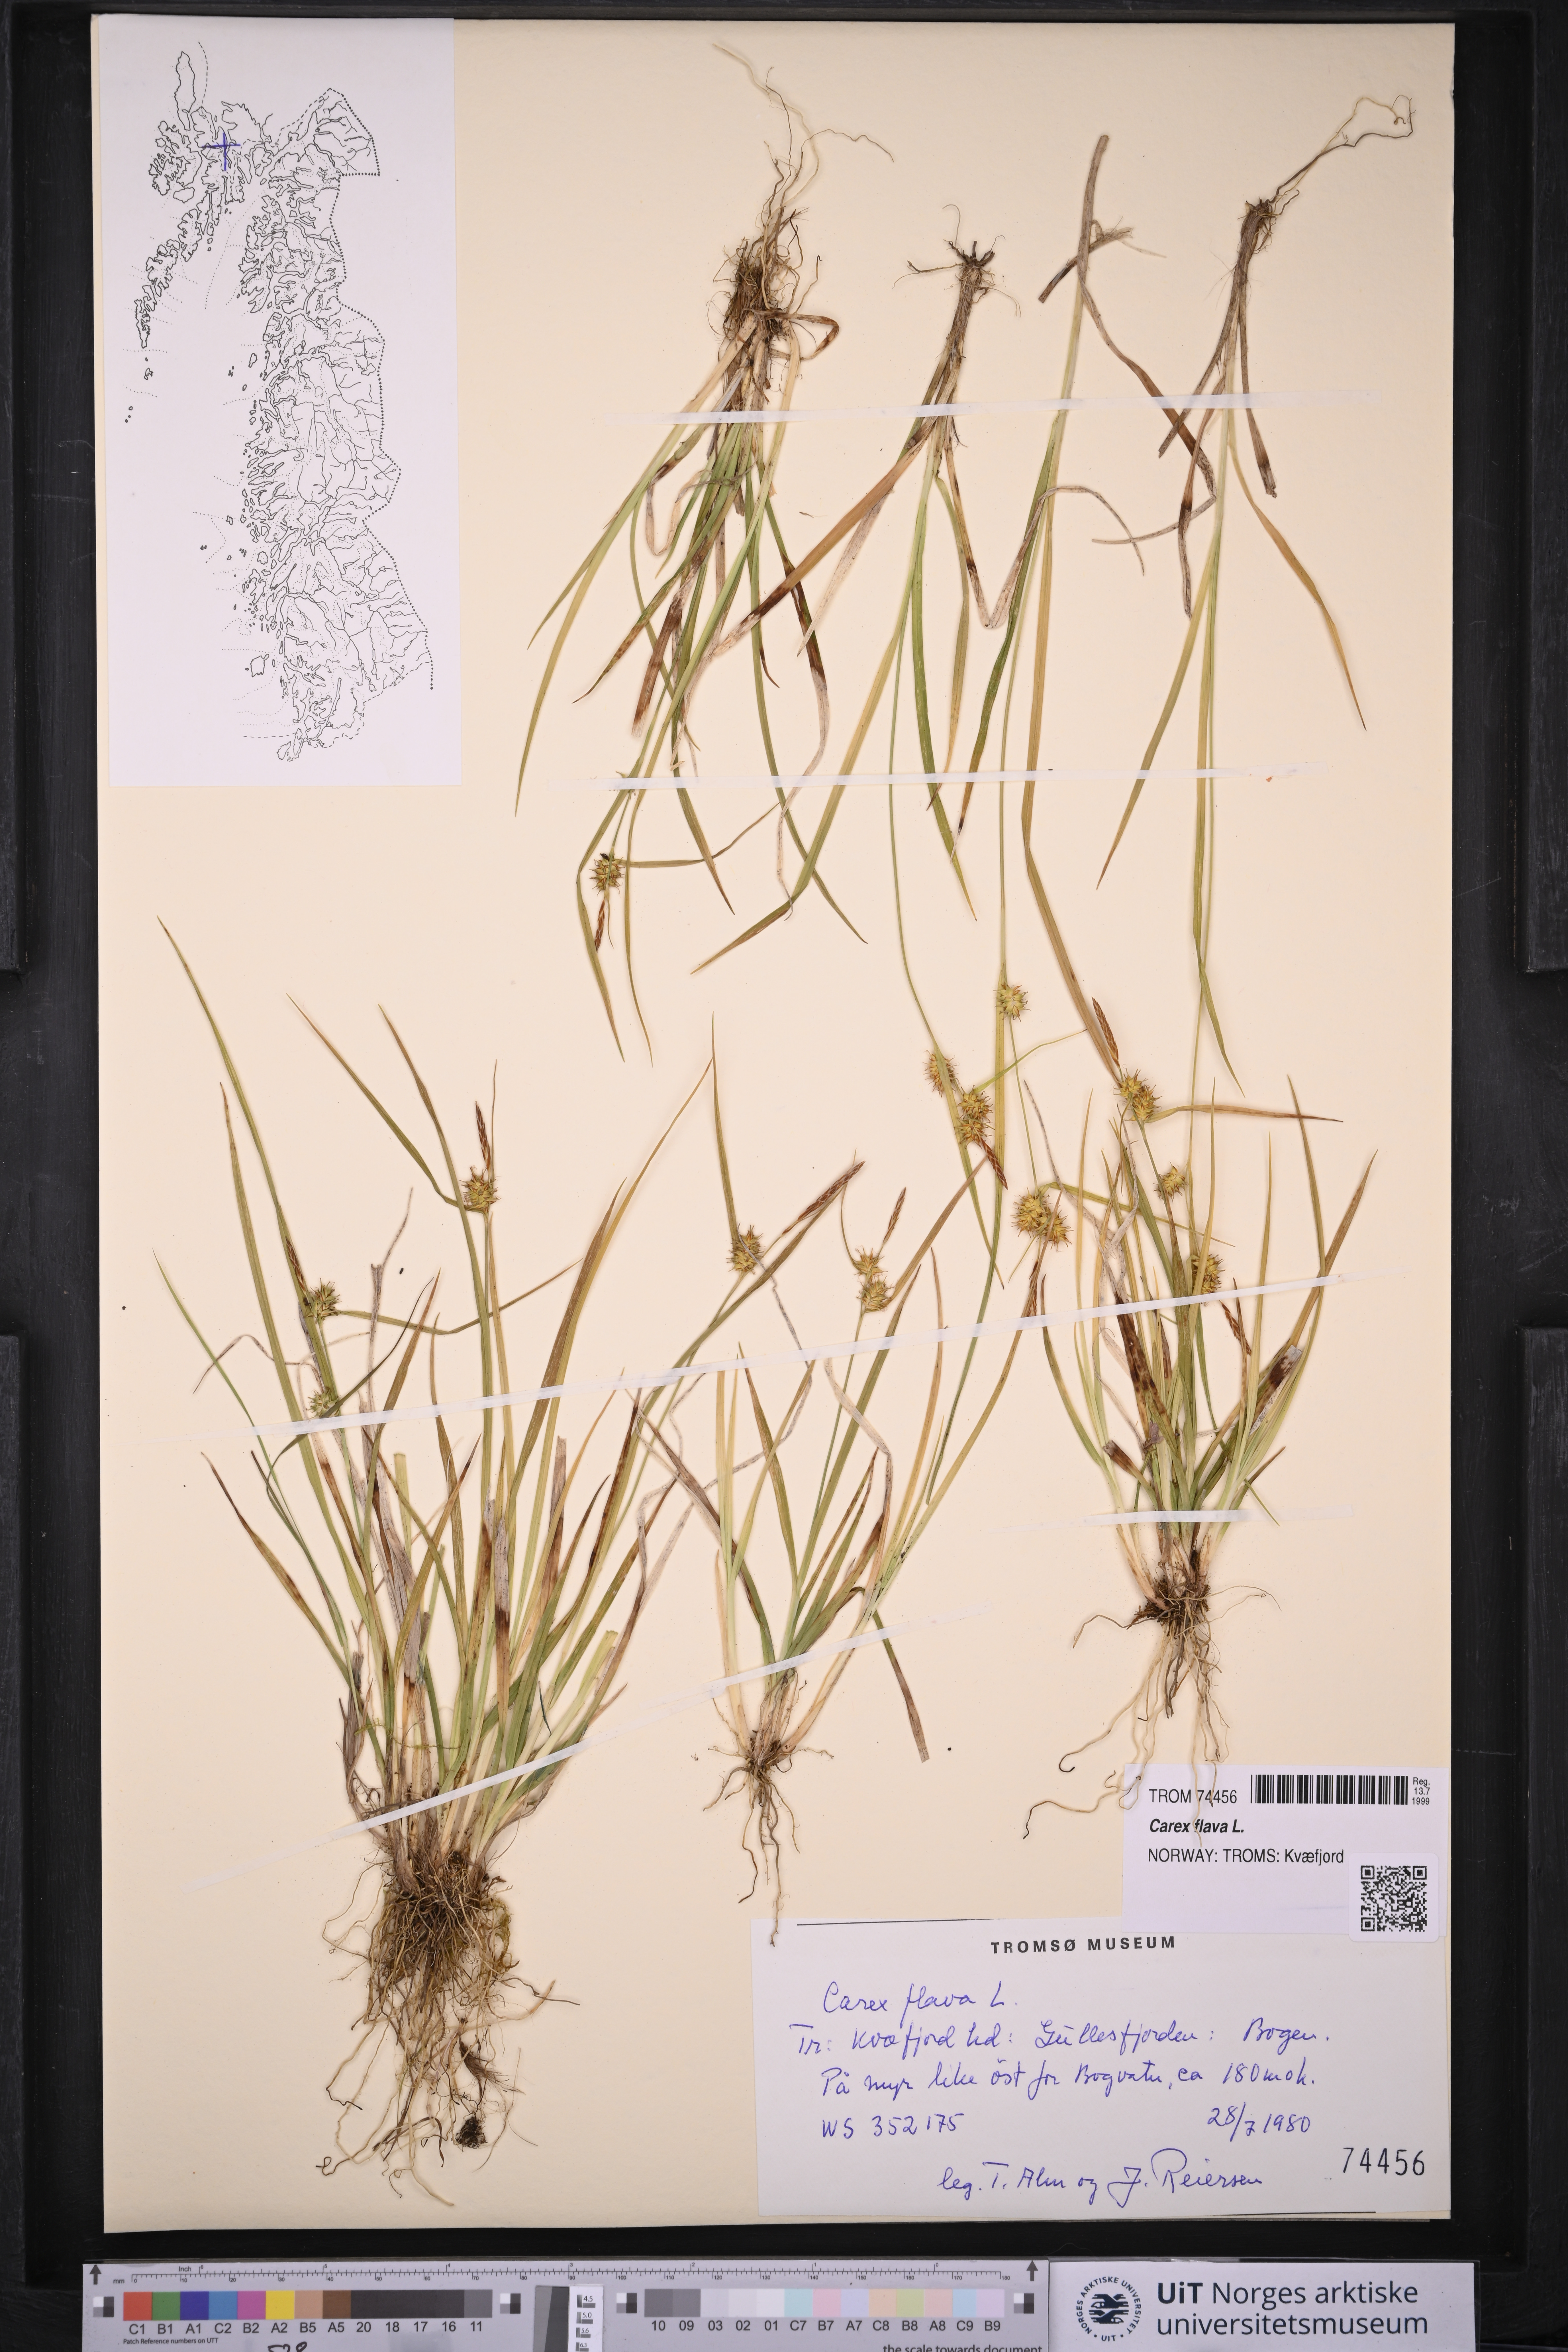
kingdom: Plantae
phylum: Tracheophyta
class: Liliopsida
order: Poales
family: Cyperaceae
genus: Carex
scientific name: Carex flava
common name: Large yellow-sedge
